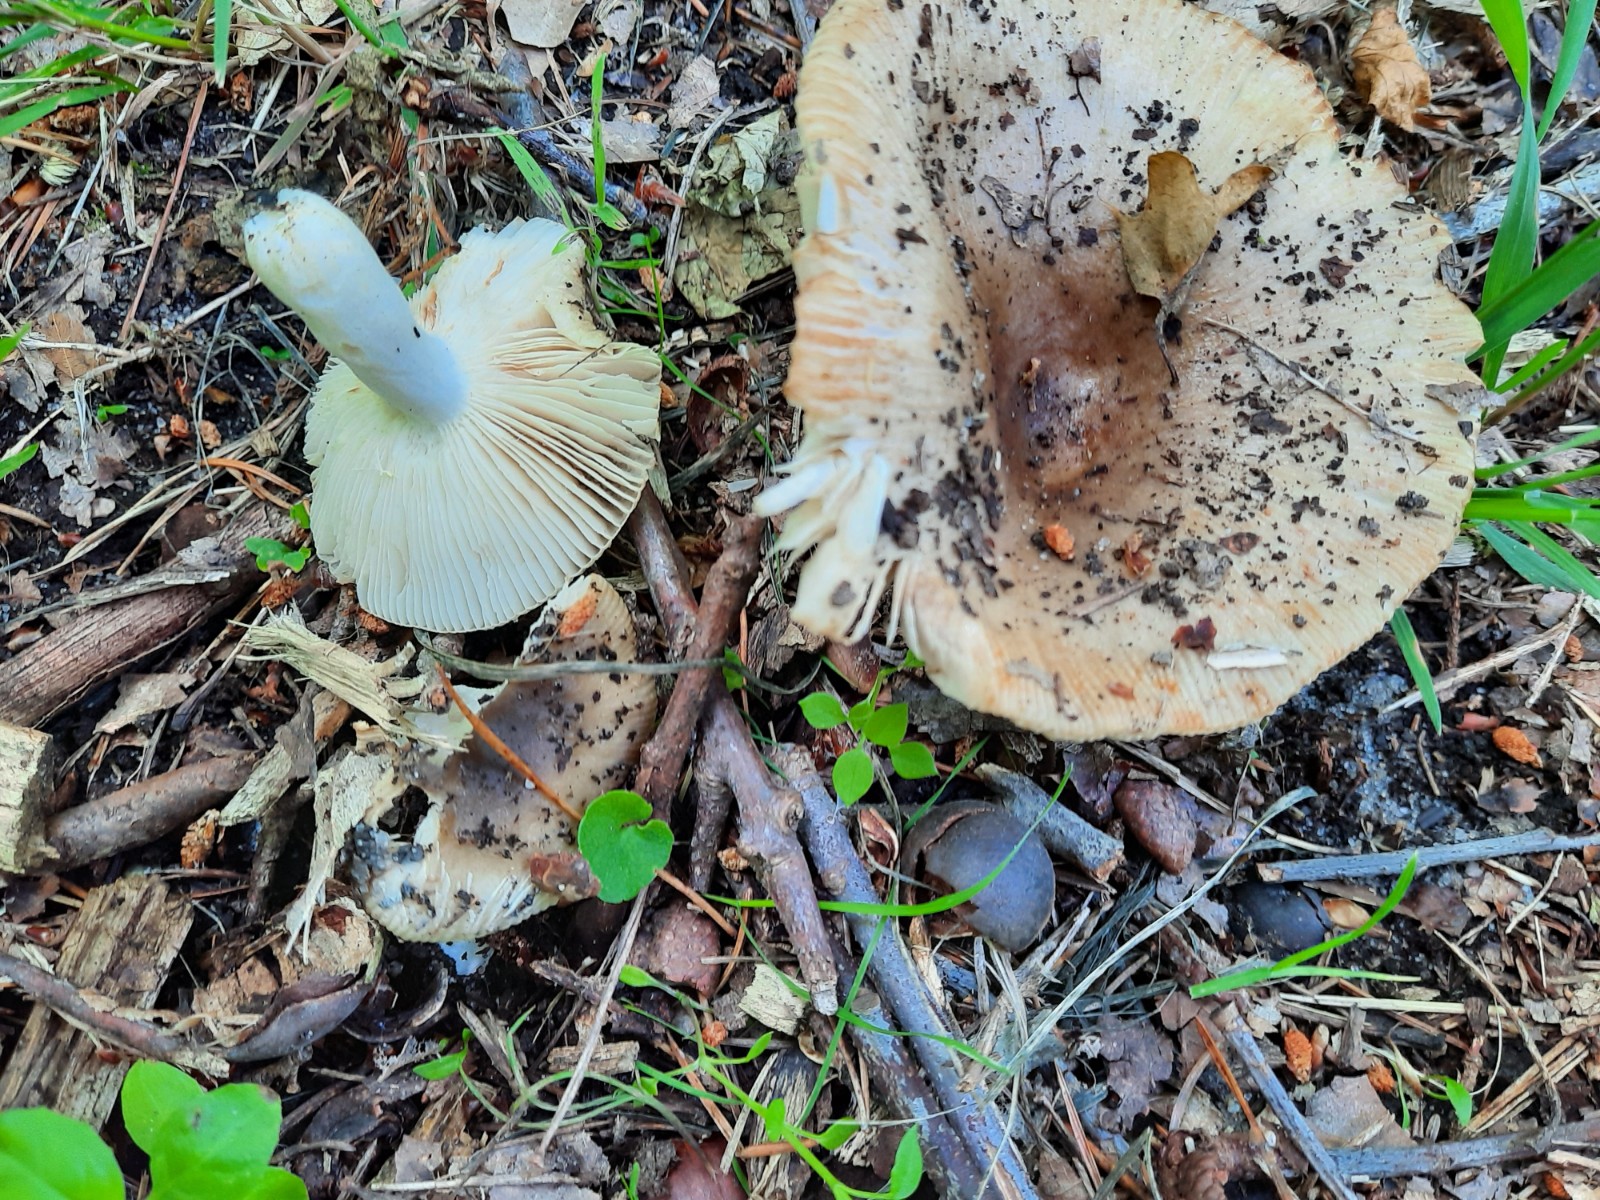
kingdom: Fungi
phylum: Basidiomycota
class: Agaricomycetes
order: Russulales
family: Russulaceae
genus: Russula
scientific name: Russula recondita
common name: mild kam-skørhat
